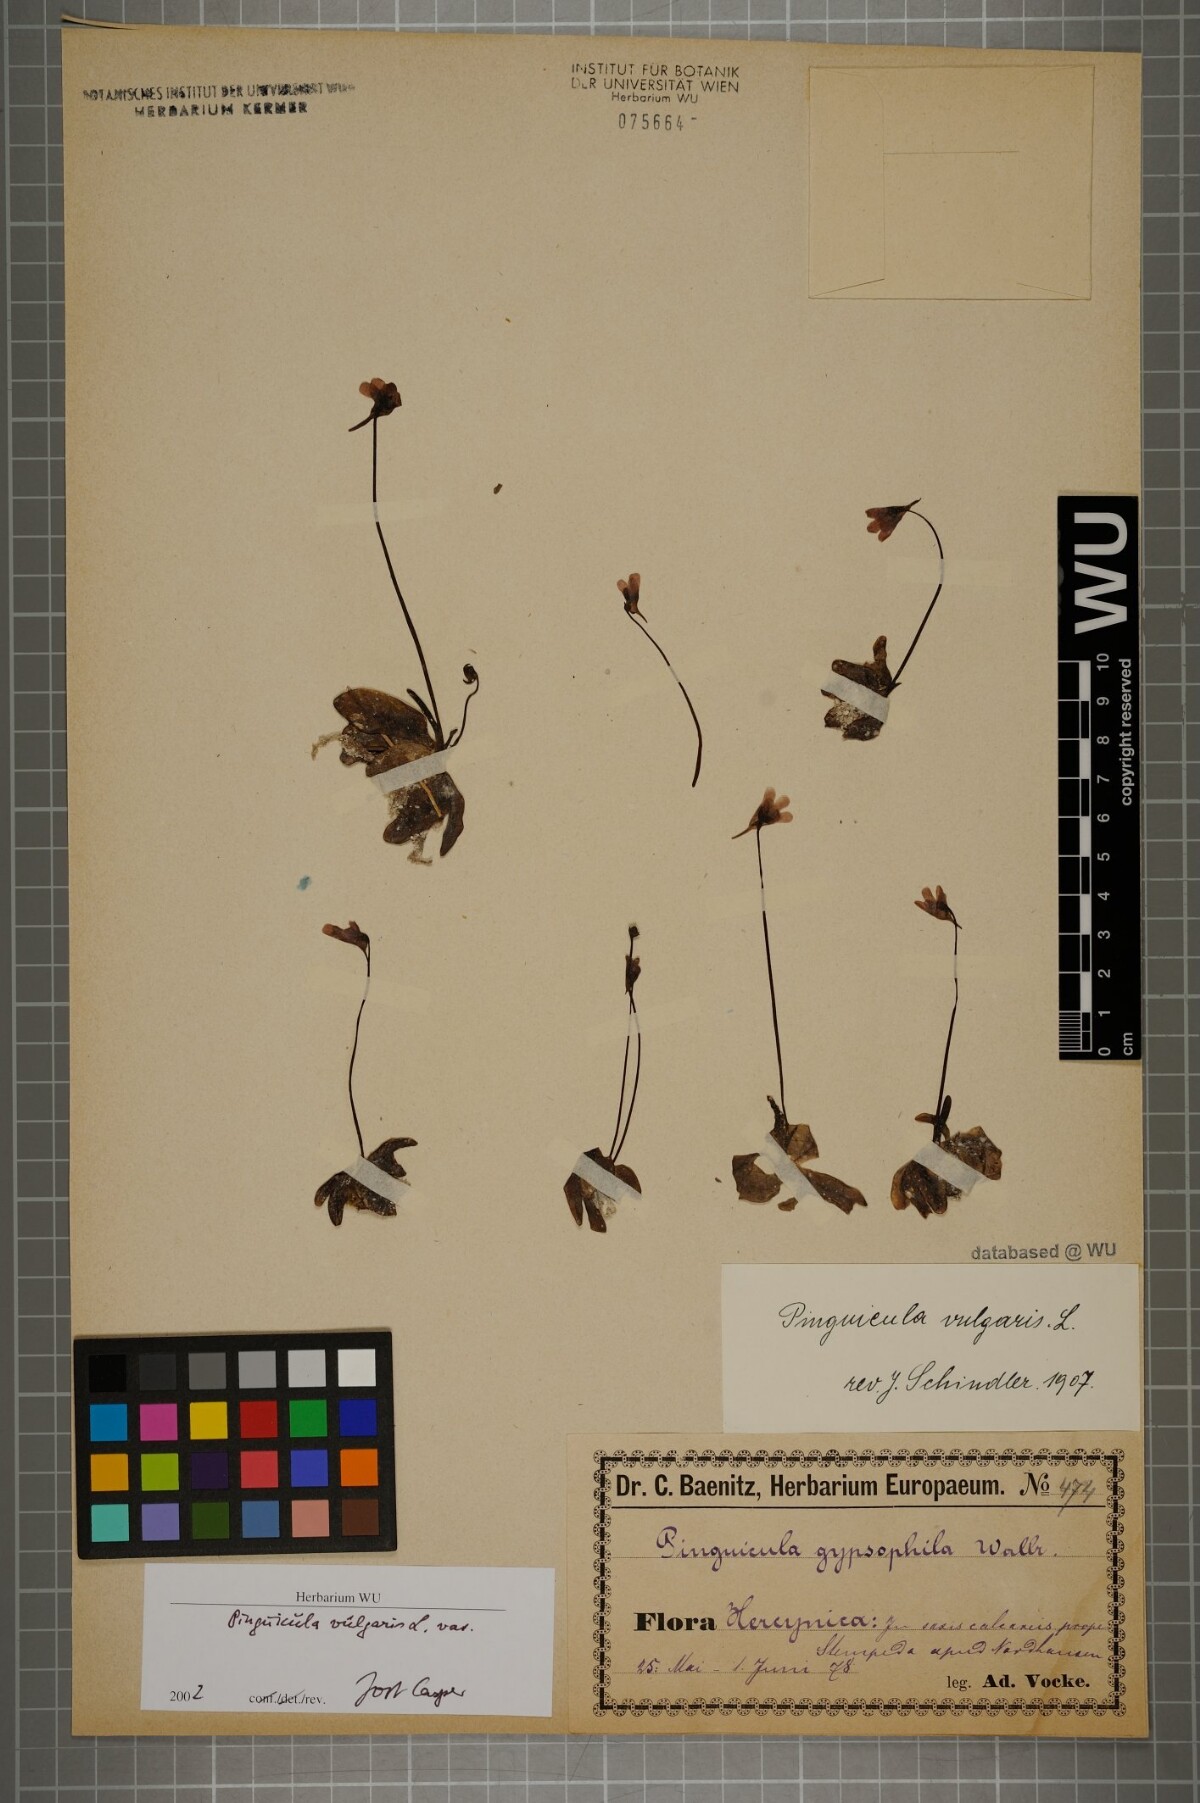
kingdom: Plantae
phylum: Tracheophyta
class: Magnoliopsida
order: Lamiales
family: Lentibulariaceae
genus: Pinguicula
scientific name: Pinguicula vulgaris
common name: Common butterwort
